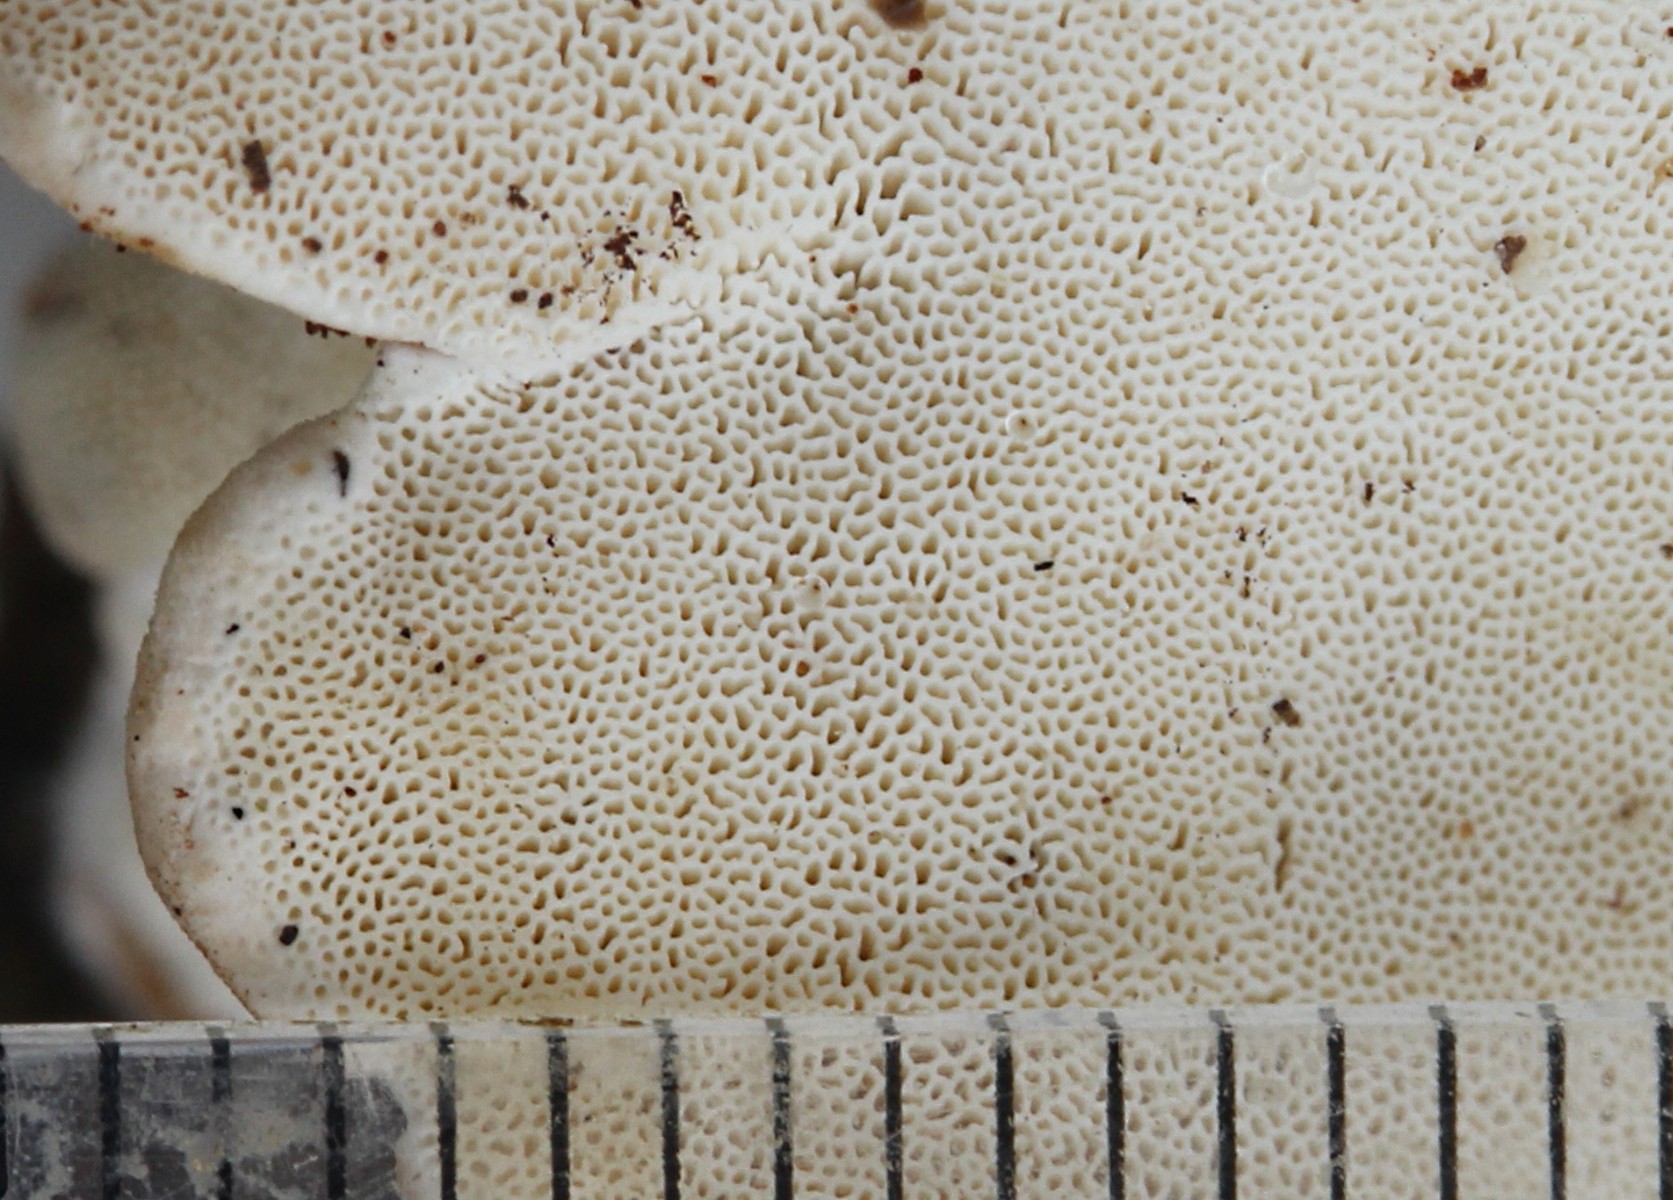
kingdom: Fungi
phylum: Basidiomycota
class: Agaricomycetes
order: Hymenochaetales
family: Oxyporaceae
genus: Oxyporus
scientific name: Oxyporus populinus
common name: sammenvokset trylleporesvamp
